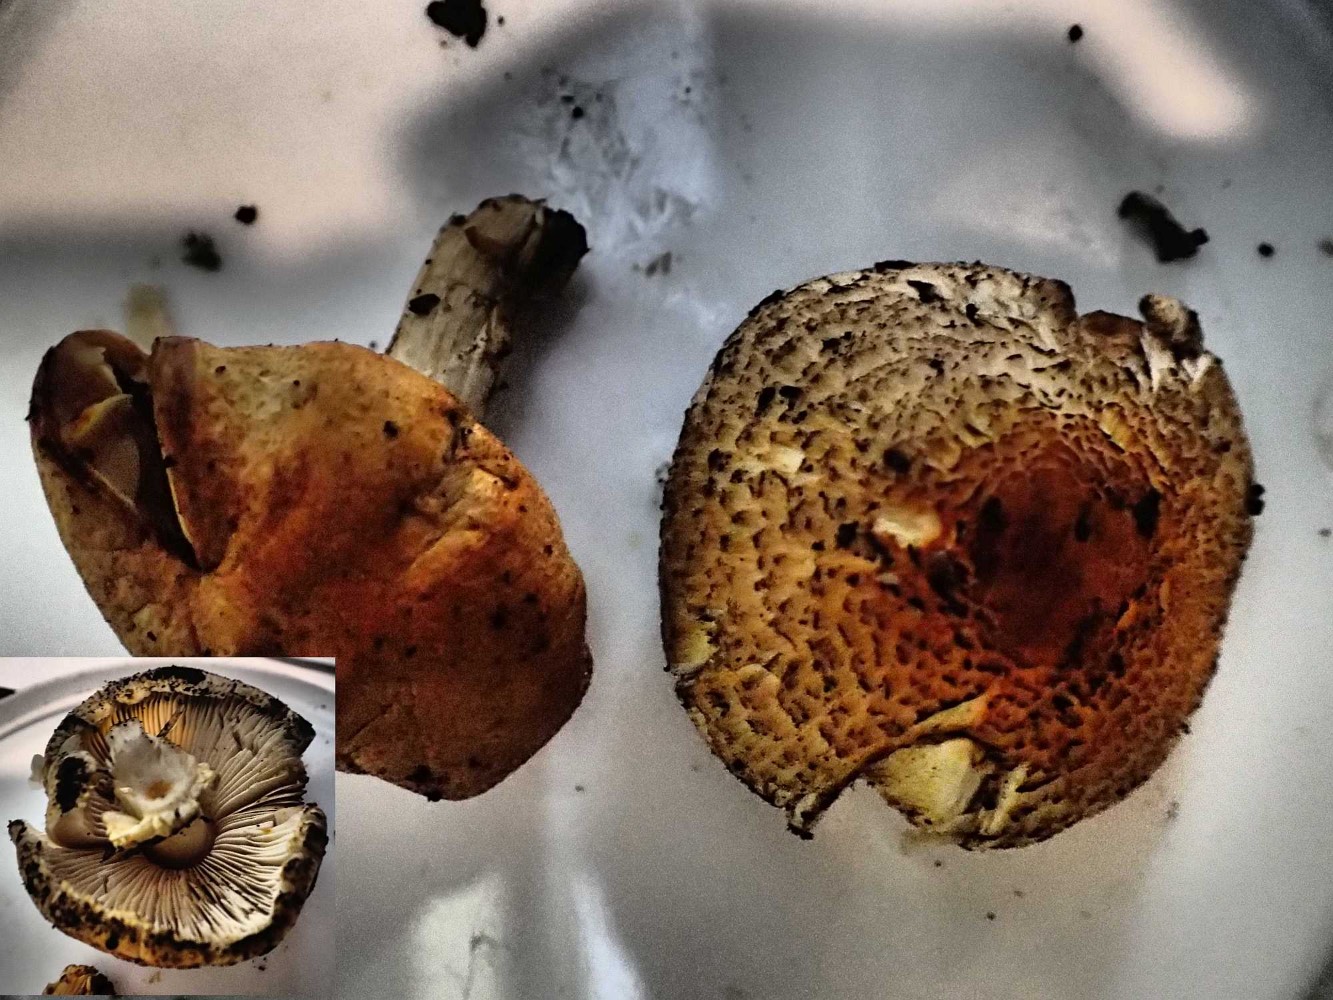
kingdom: Fungi
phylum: Basidiomycota
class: Agaricomycetes
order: Agaricales
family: Agaricaceae
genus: Lepiota
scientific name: Lepiota ochraceofulva
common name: sødtduftende parasolhat
